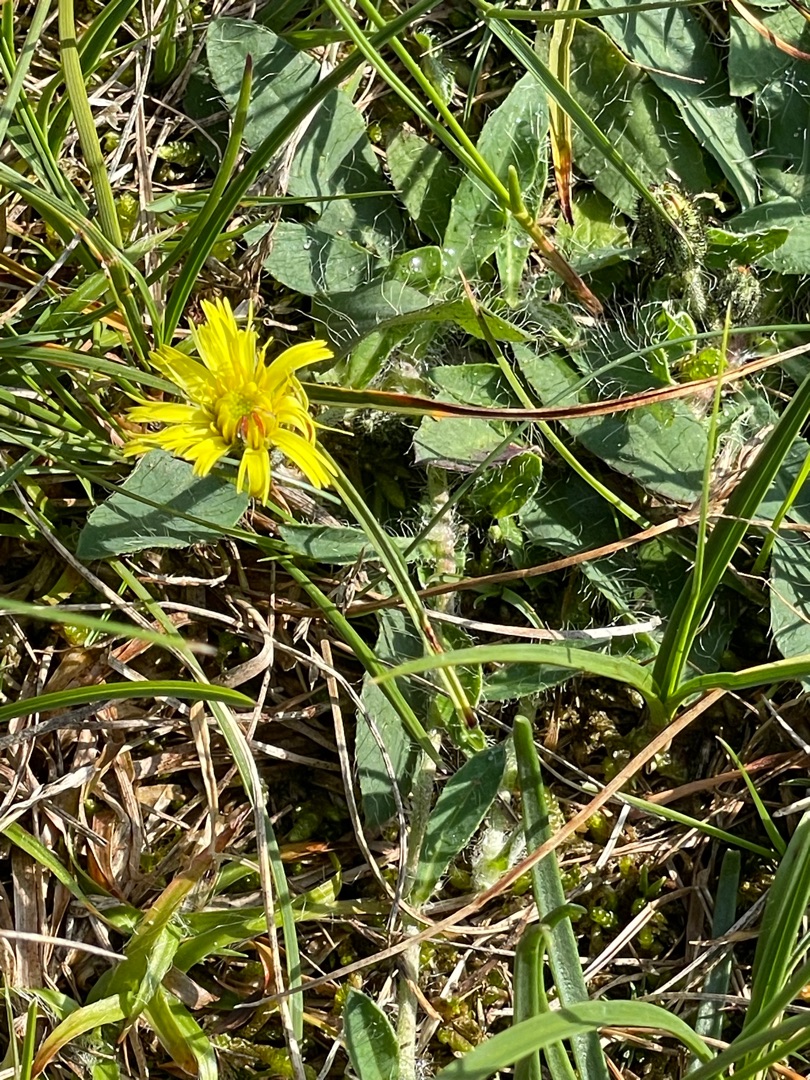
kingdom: Plantae
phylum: Tracheophyta
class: Magnoliopsida
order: Asterales
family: Asteraceae
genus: Pilosella
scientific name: Pilosella officinarum
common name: Håret høgeurt
